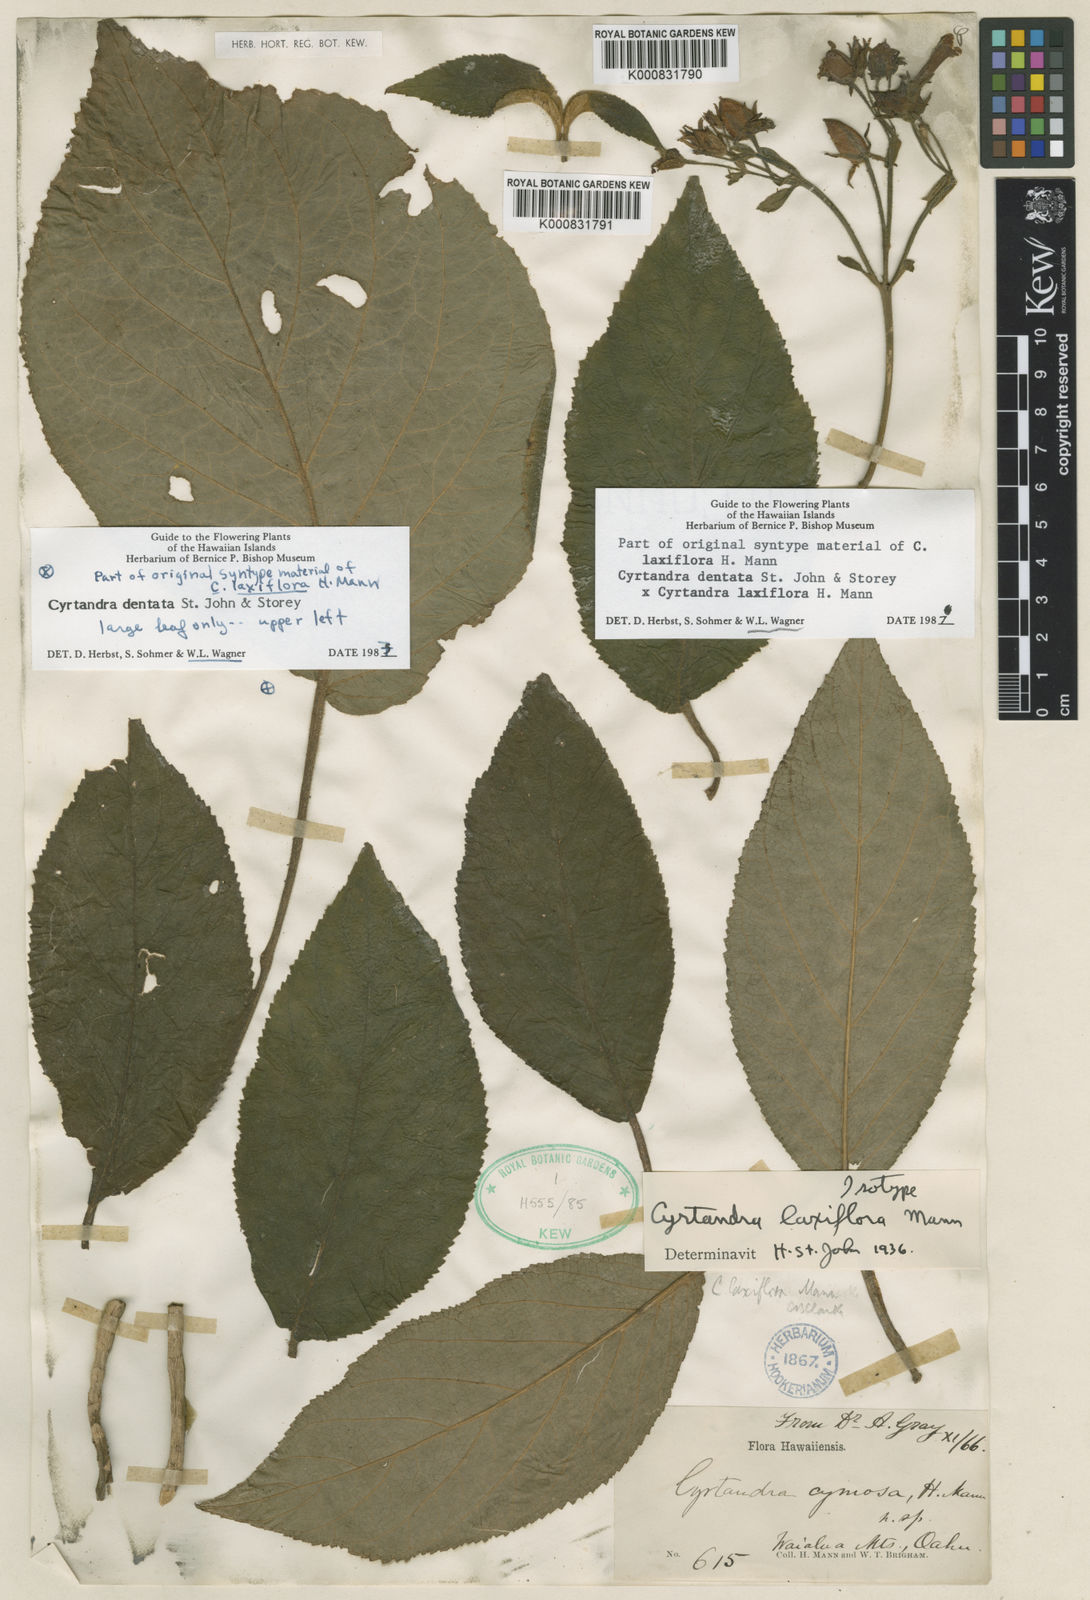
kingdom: Plantae
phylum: Tracheophyta
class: Magnoliopsida
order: Lamiales
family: Gesneriaceae
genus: Cyrtandra
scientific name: Cyrtandra dentata
